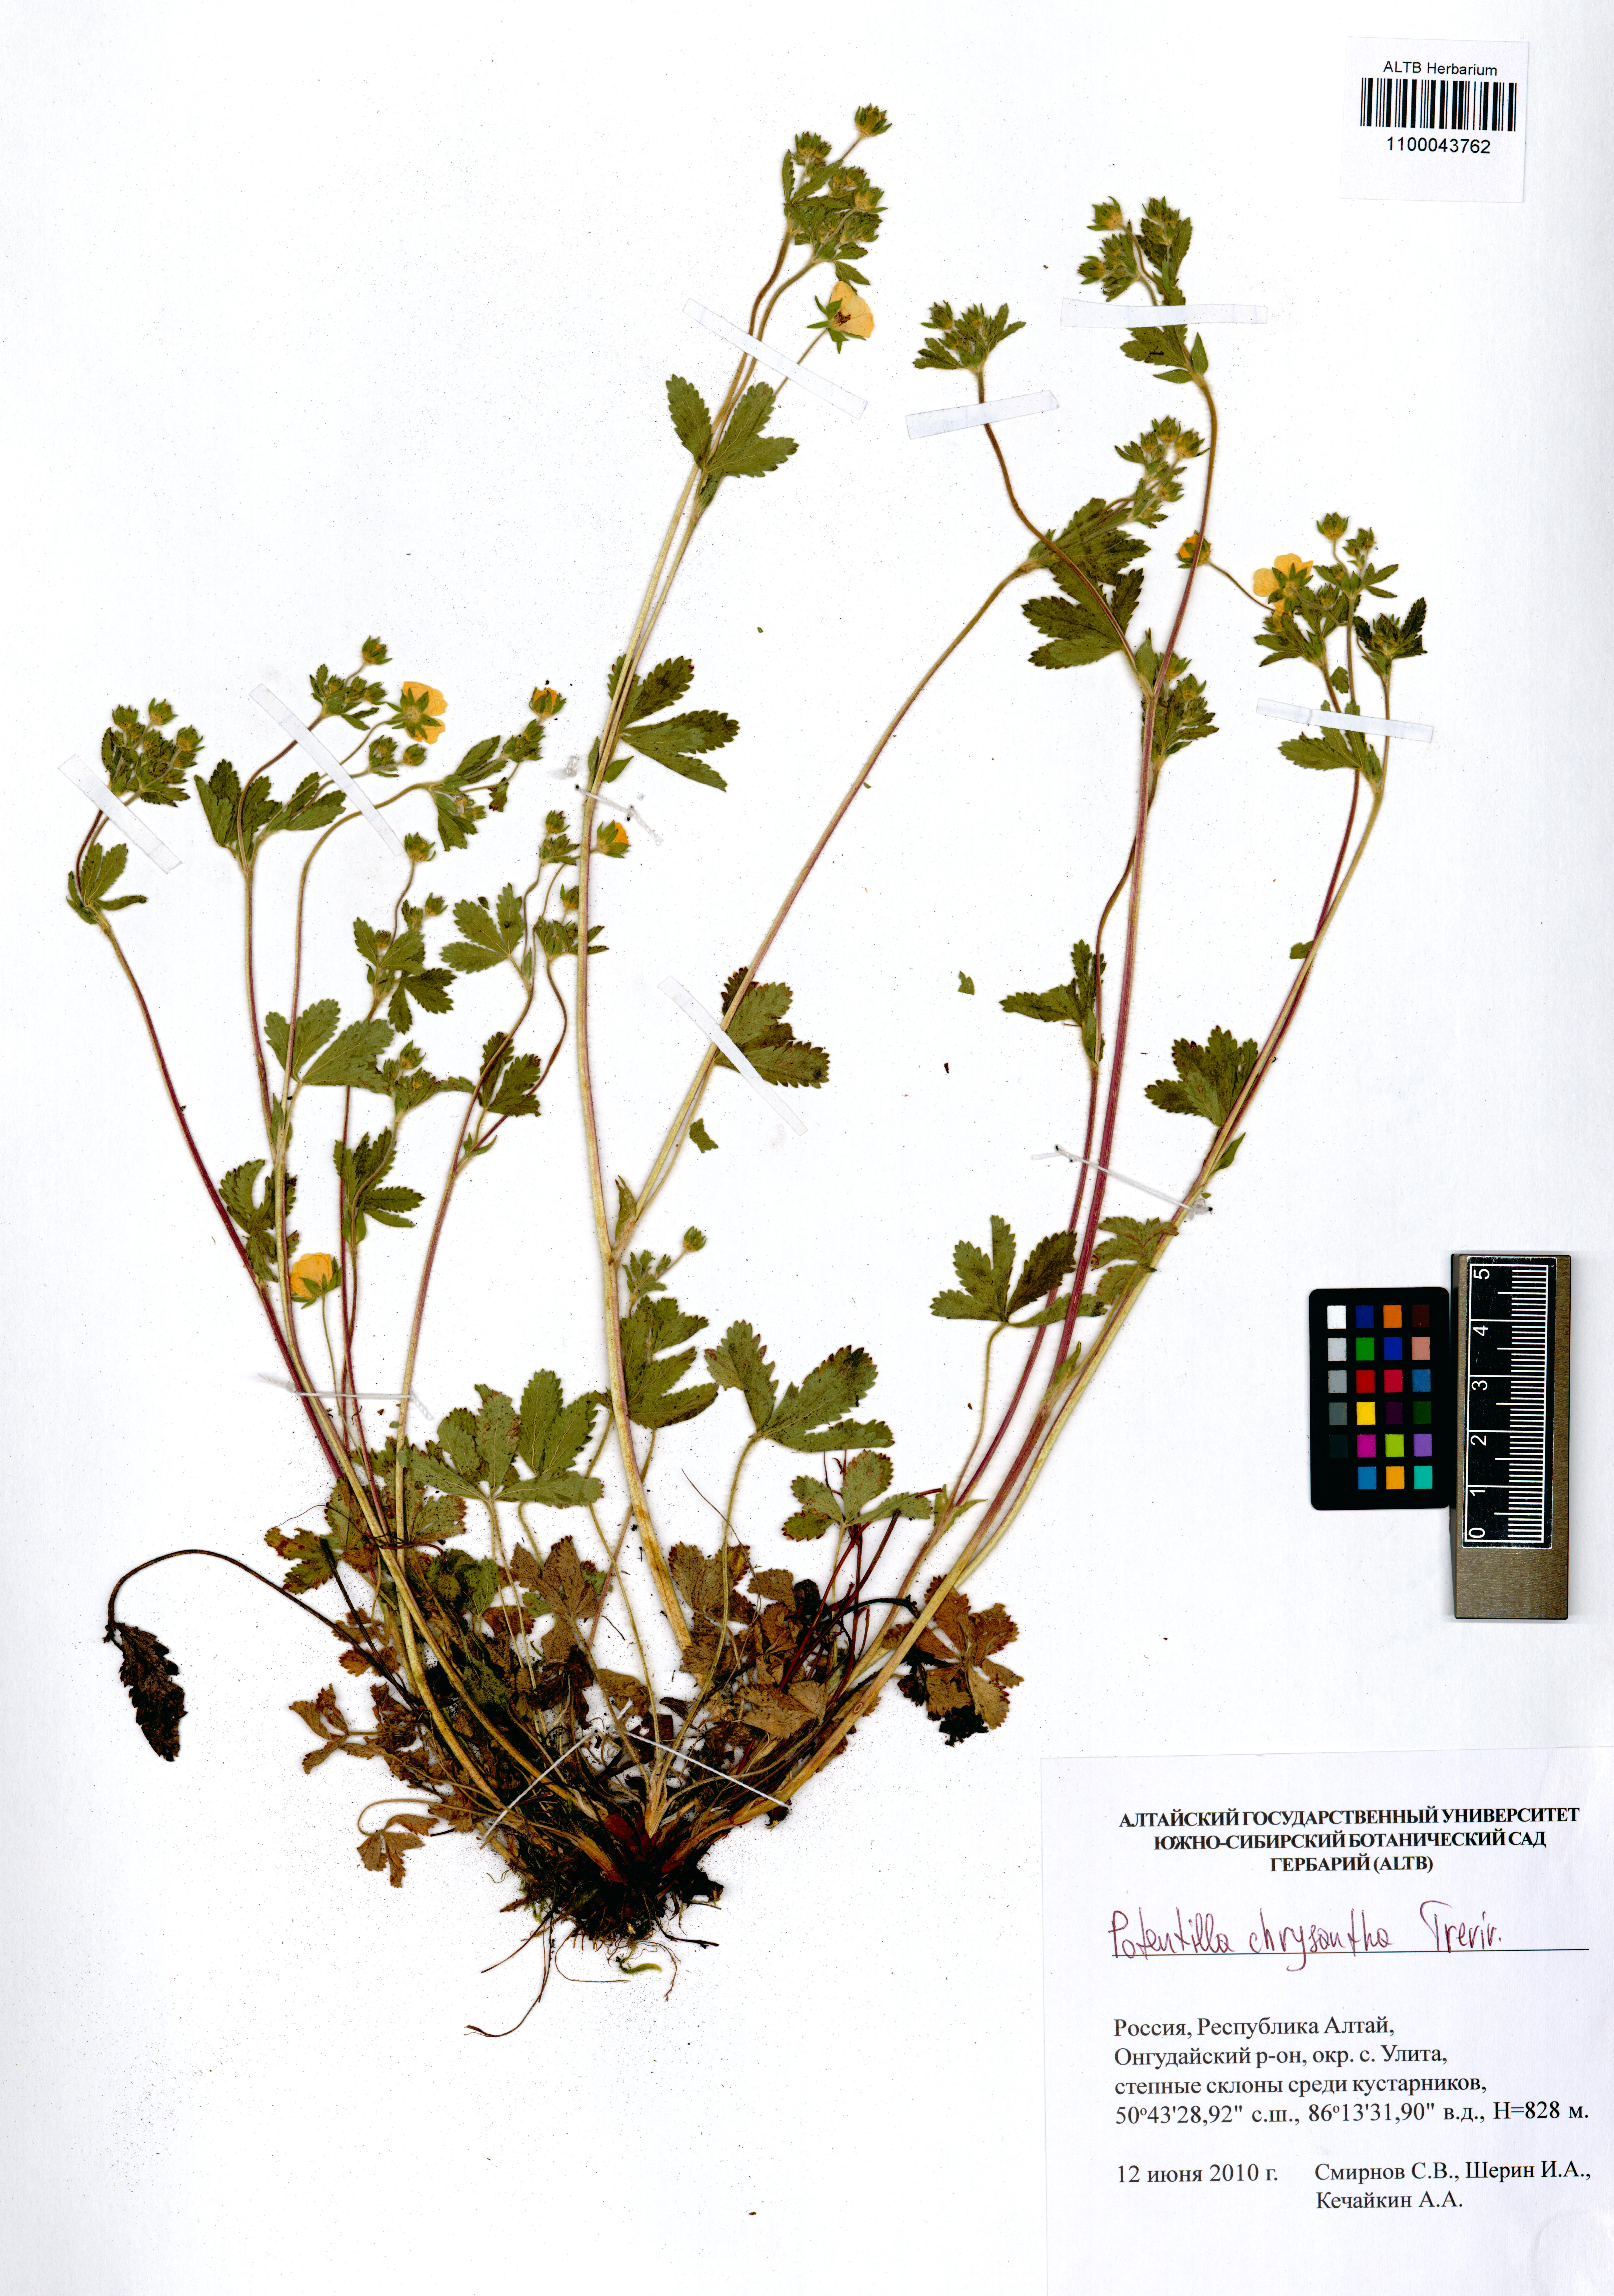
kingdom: Plantae
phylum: Tracheophyta
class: Magnoliopsida
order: Rosales
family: Rosaceae
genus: Potentilla
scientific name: Potentilla chrysantha
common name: Thuringian cinquefoil
